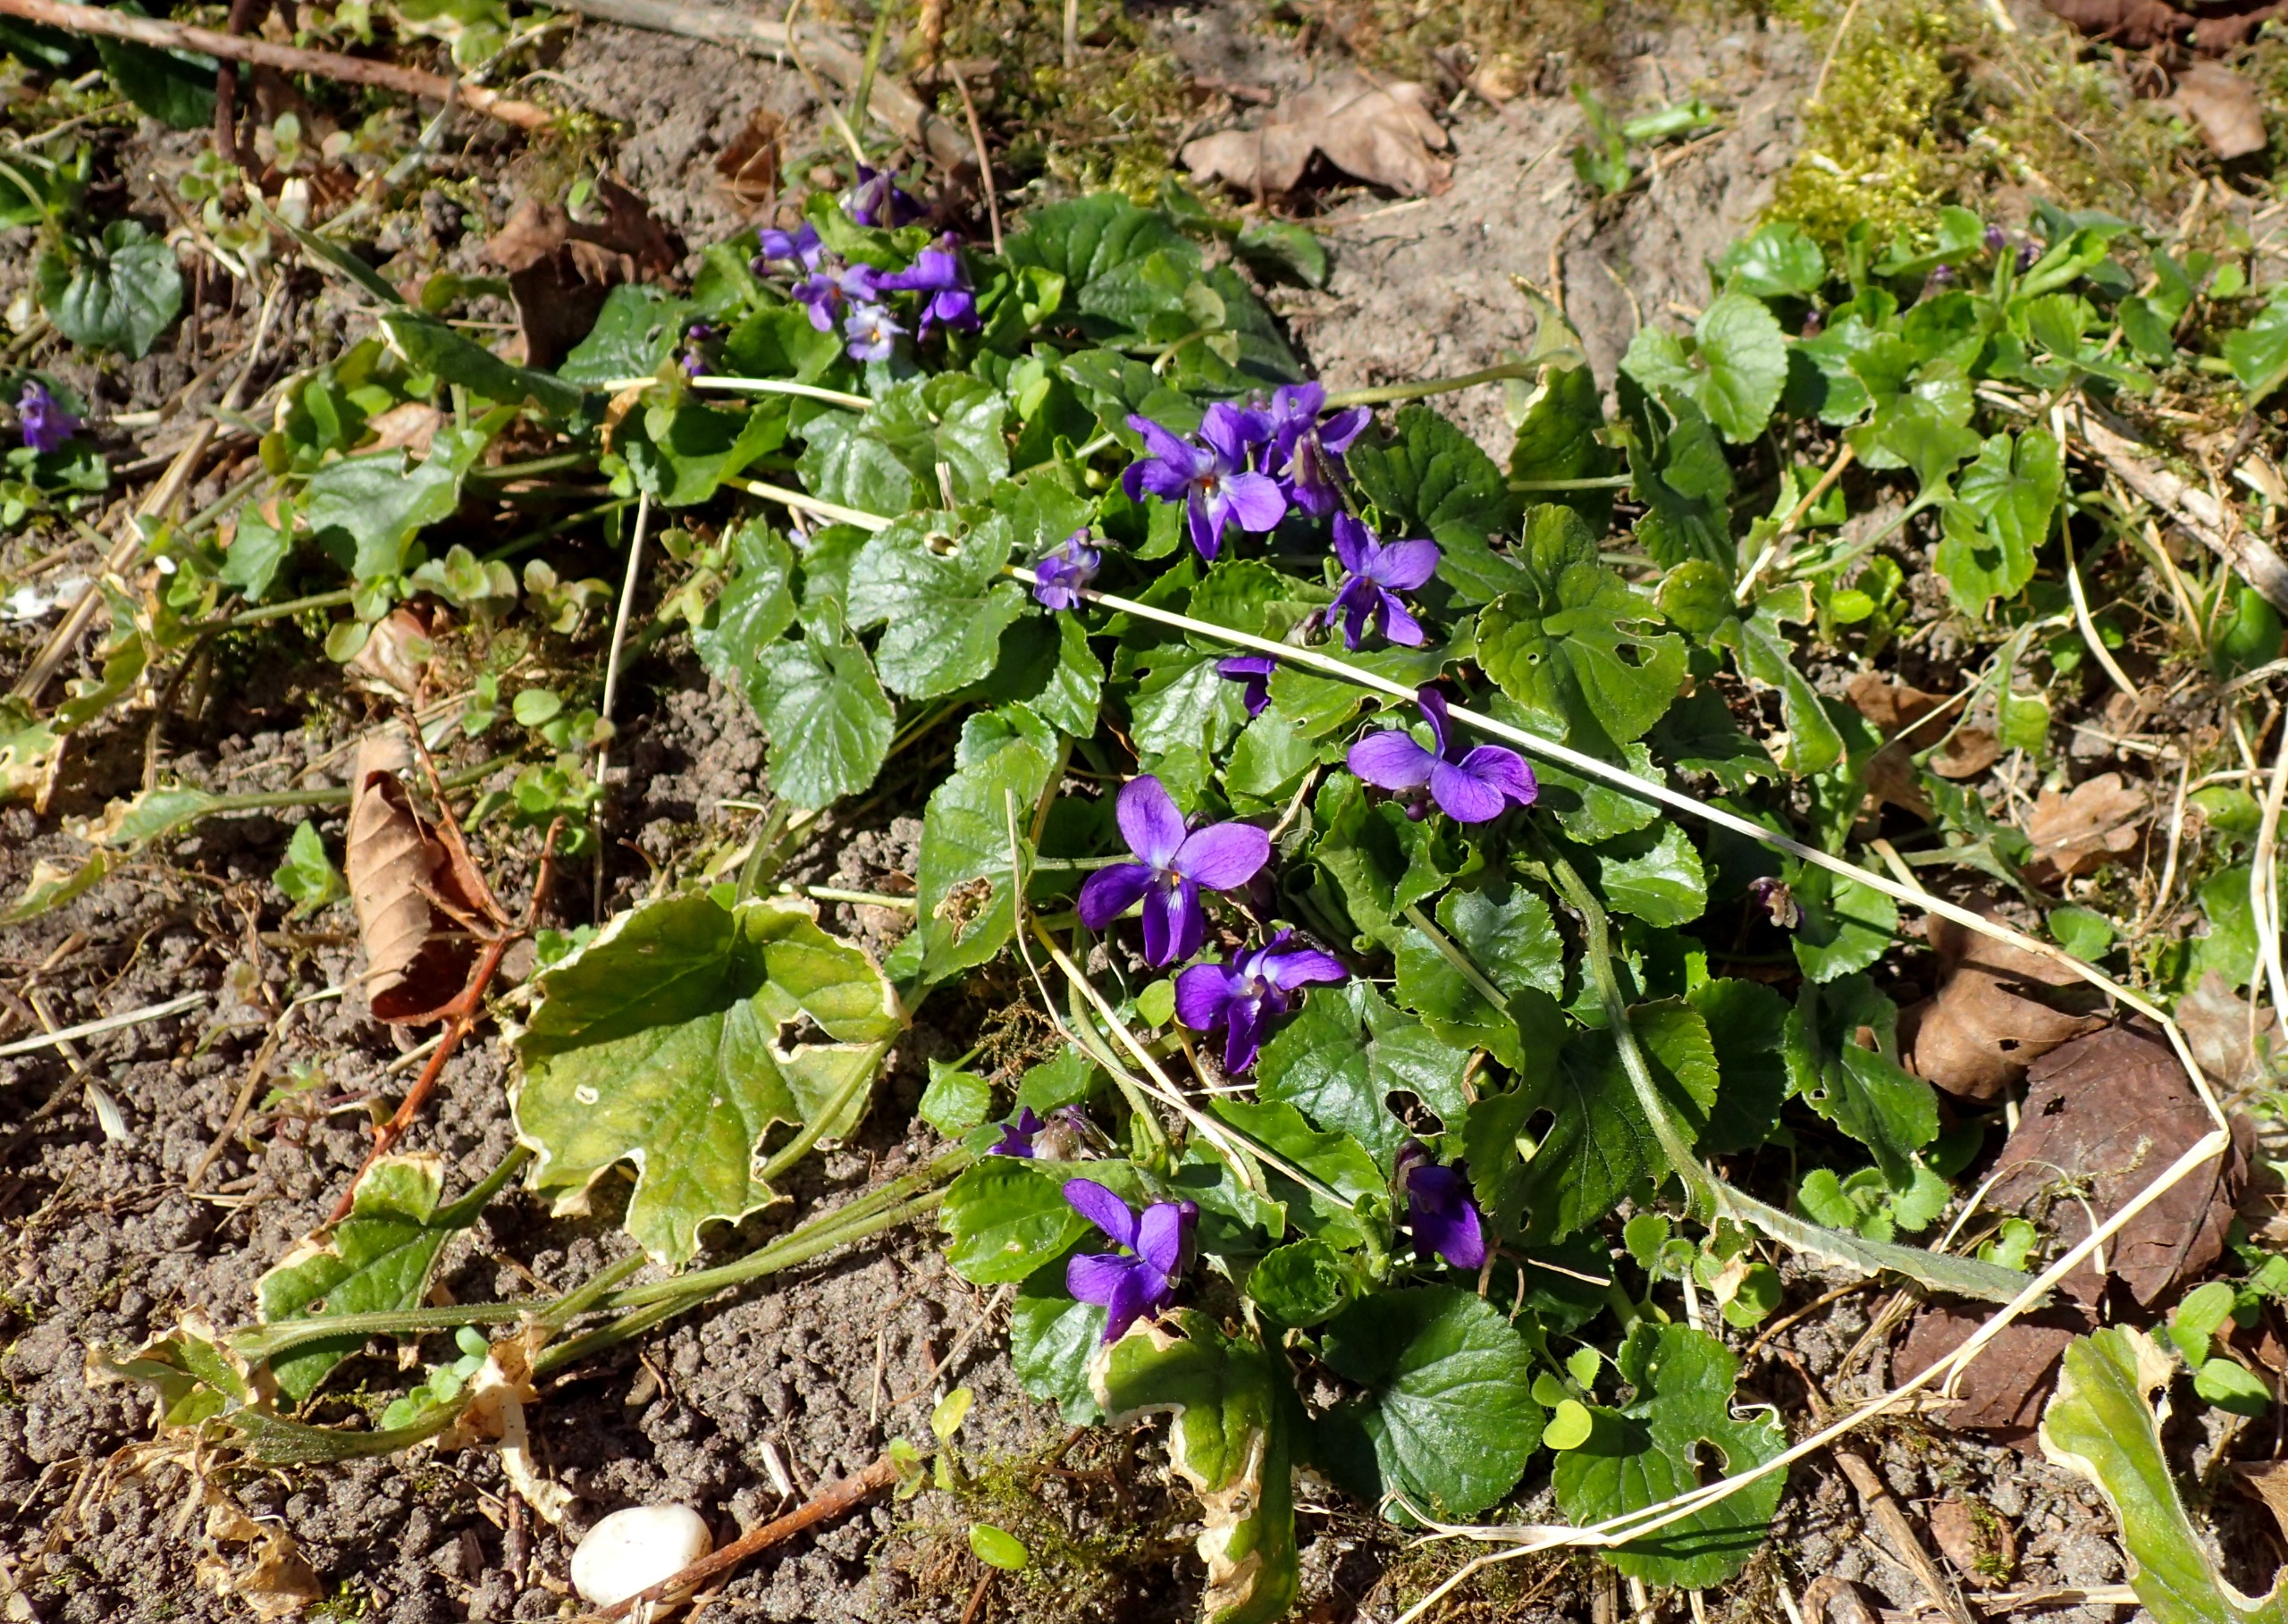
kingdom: Plantae
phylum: Tracheophyta
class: Magnoliopsida
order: Malpighiales
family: Violaceae
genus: Viola
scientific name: Viola odorata
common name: Marts-viol
